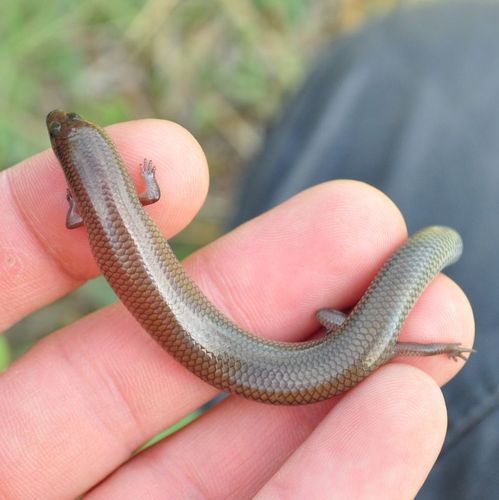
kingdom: Animalia
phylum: Chordata
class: Squamata
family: Scincidae
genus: Mochlus
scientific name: Mochlus sundevallii
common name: Peters' eyelid skink
